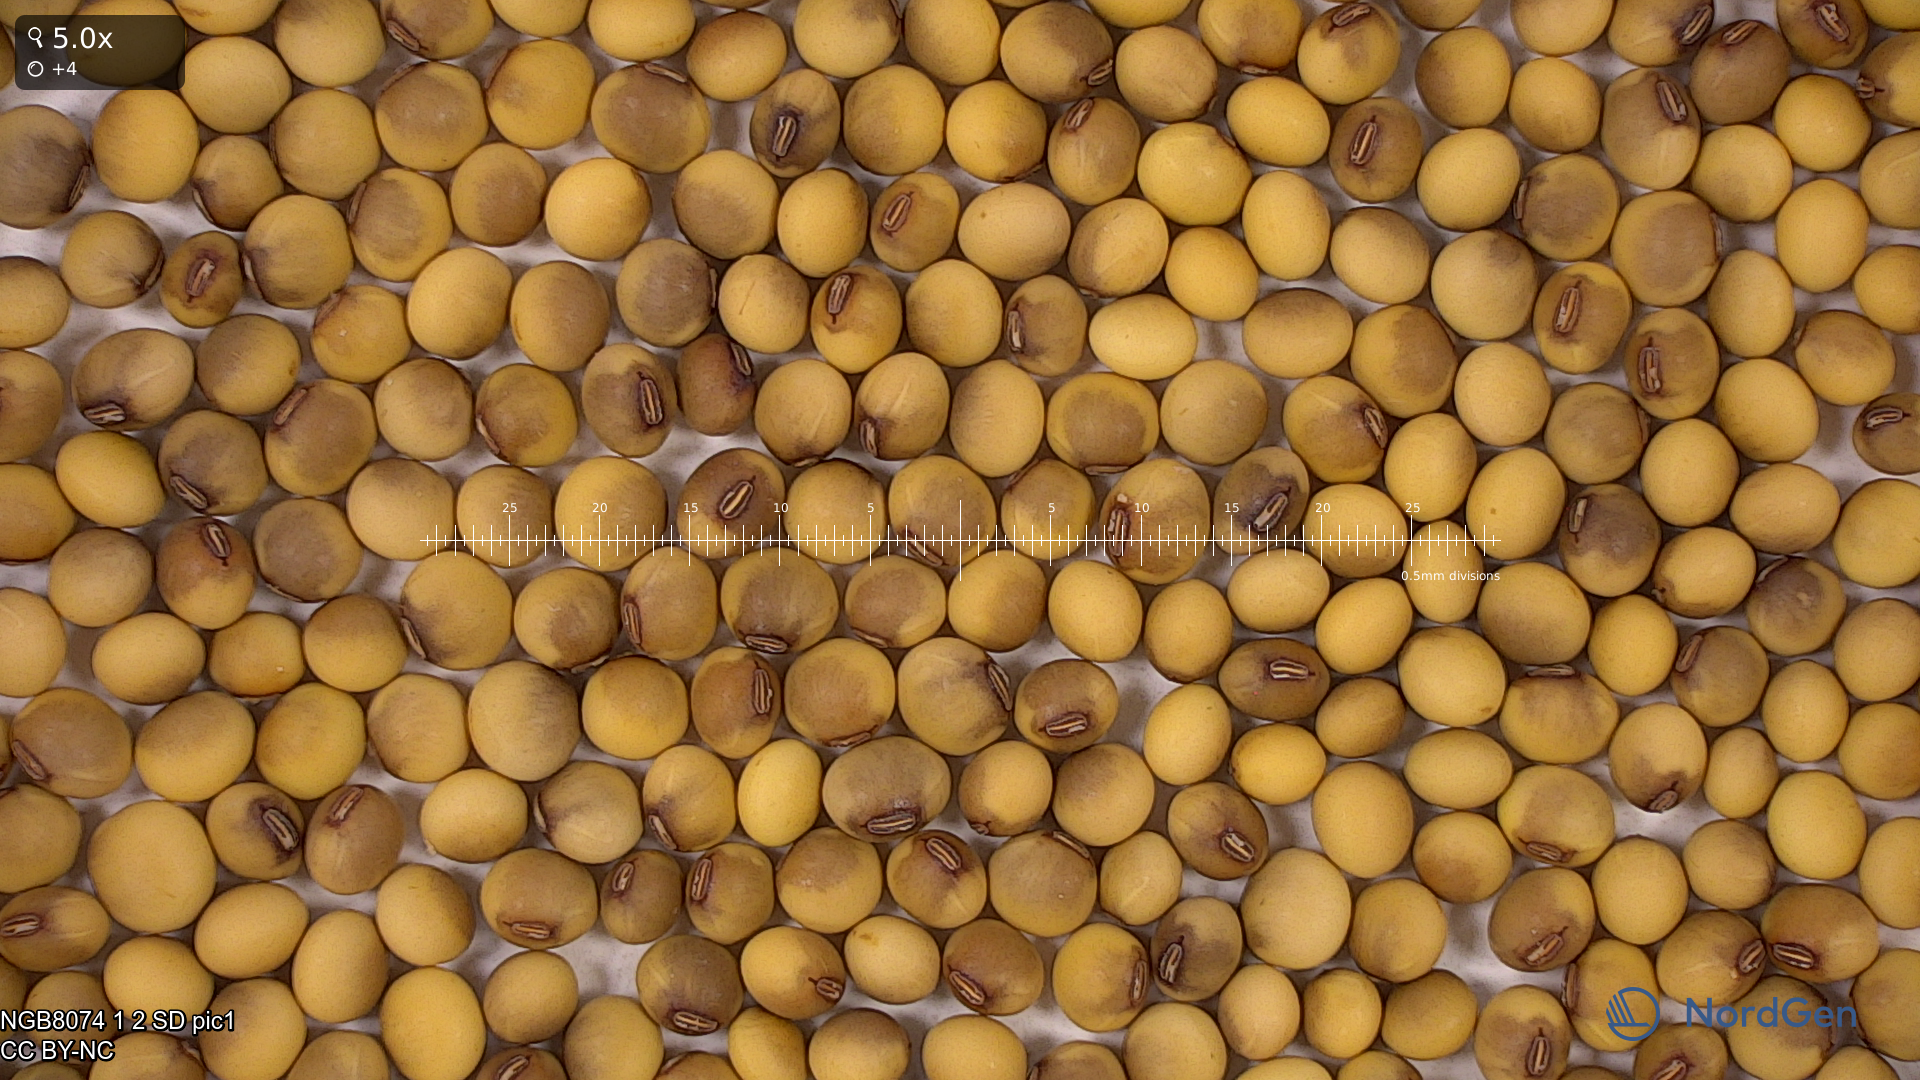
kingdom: Plantae
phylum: Tracheophyta
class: Magnoliopsida
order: Fabales
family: Fabaceae
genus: Glycine
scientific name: Glycine max
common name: Soya-bean
